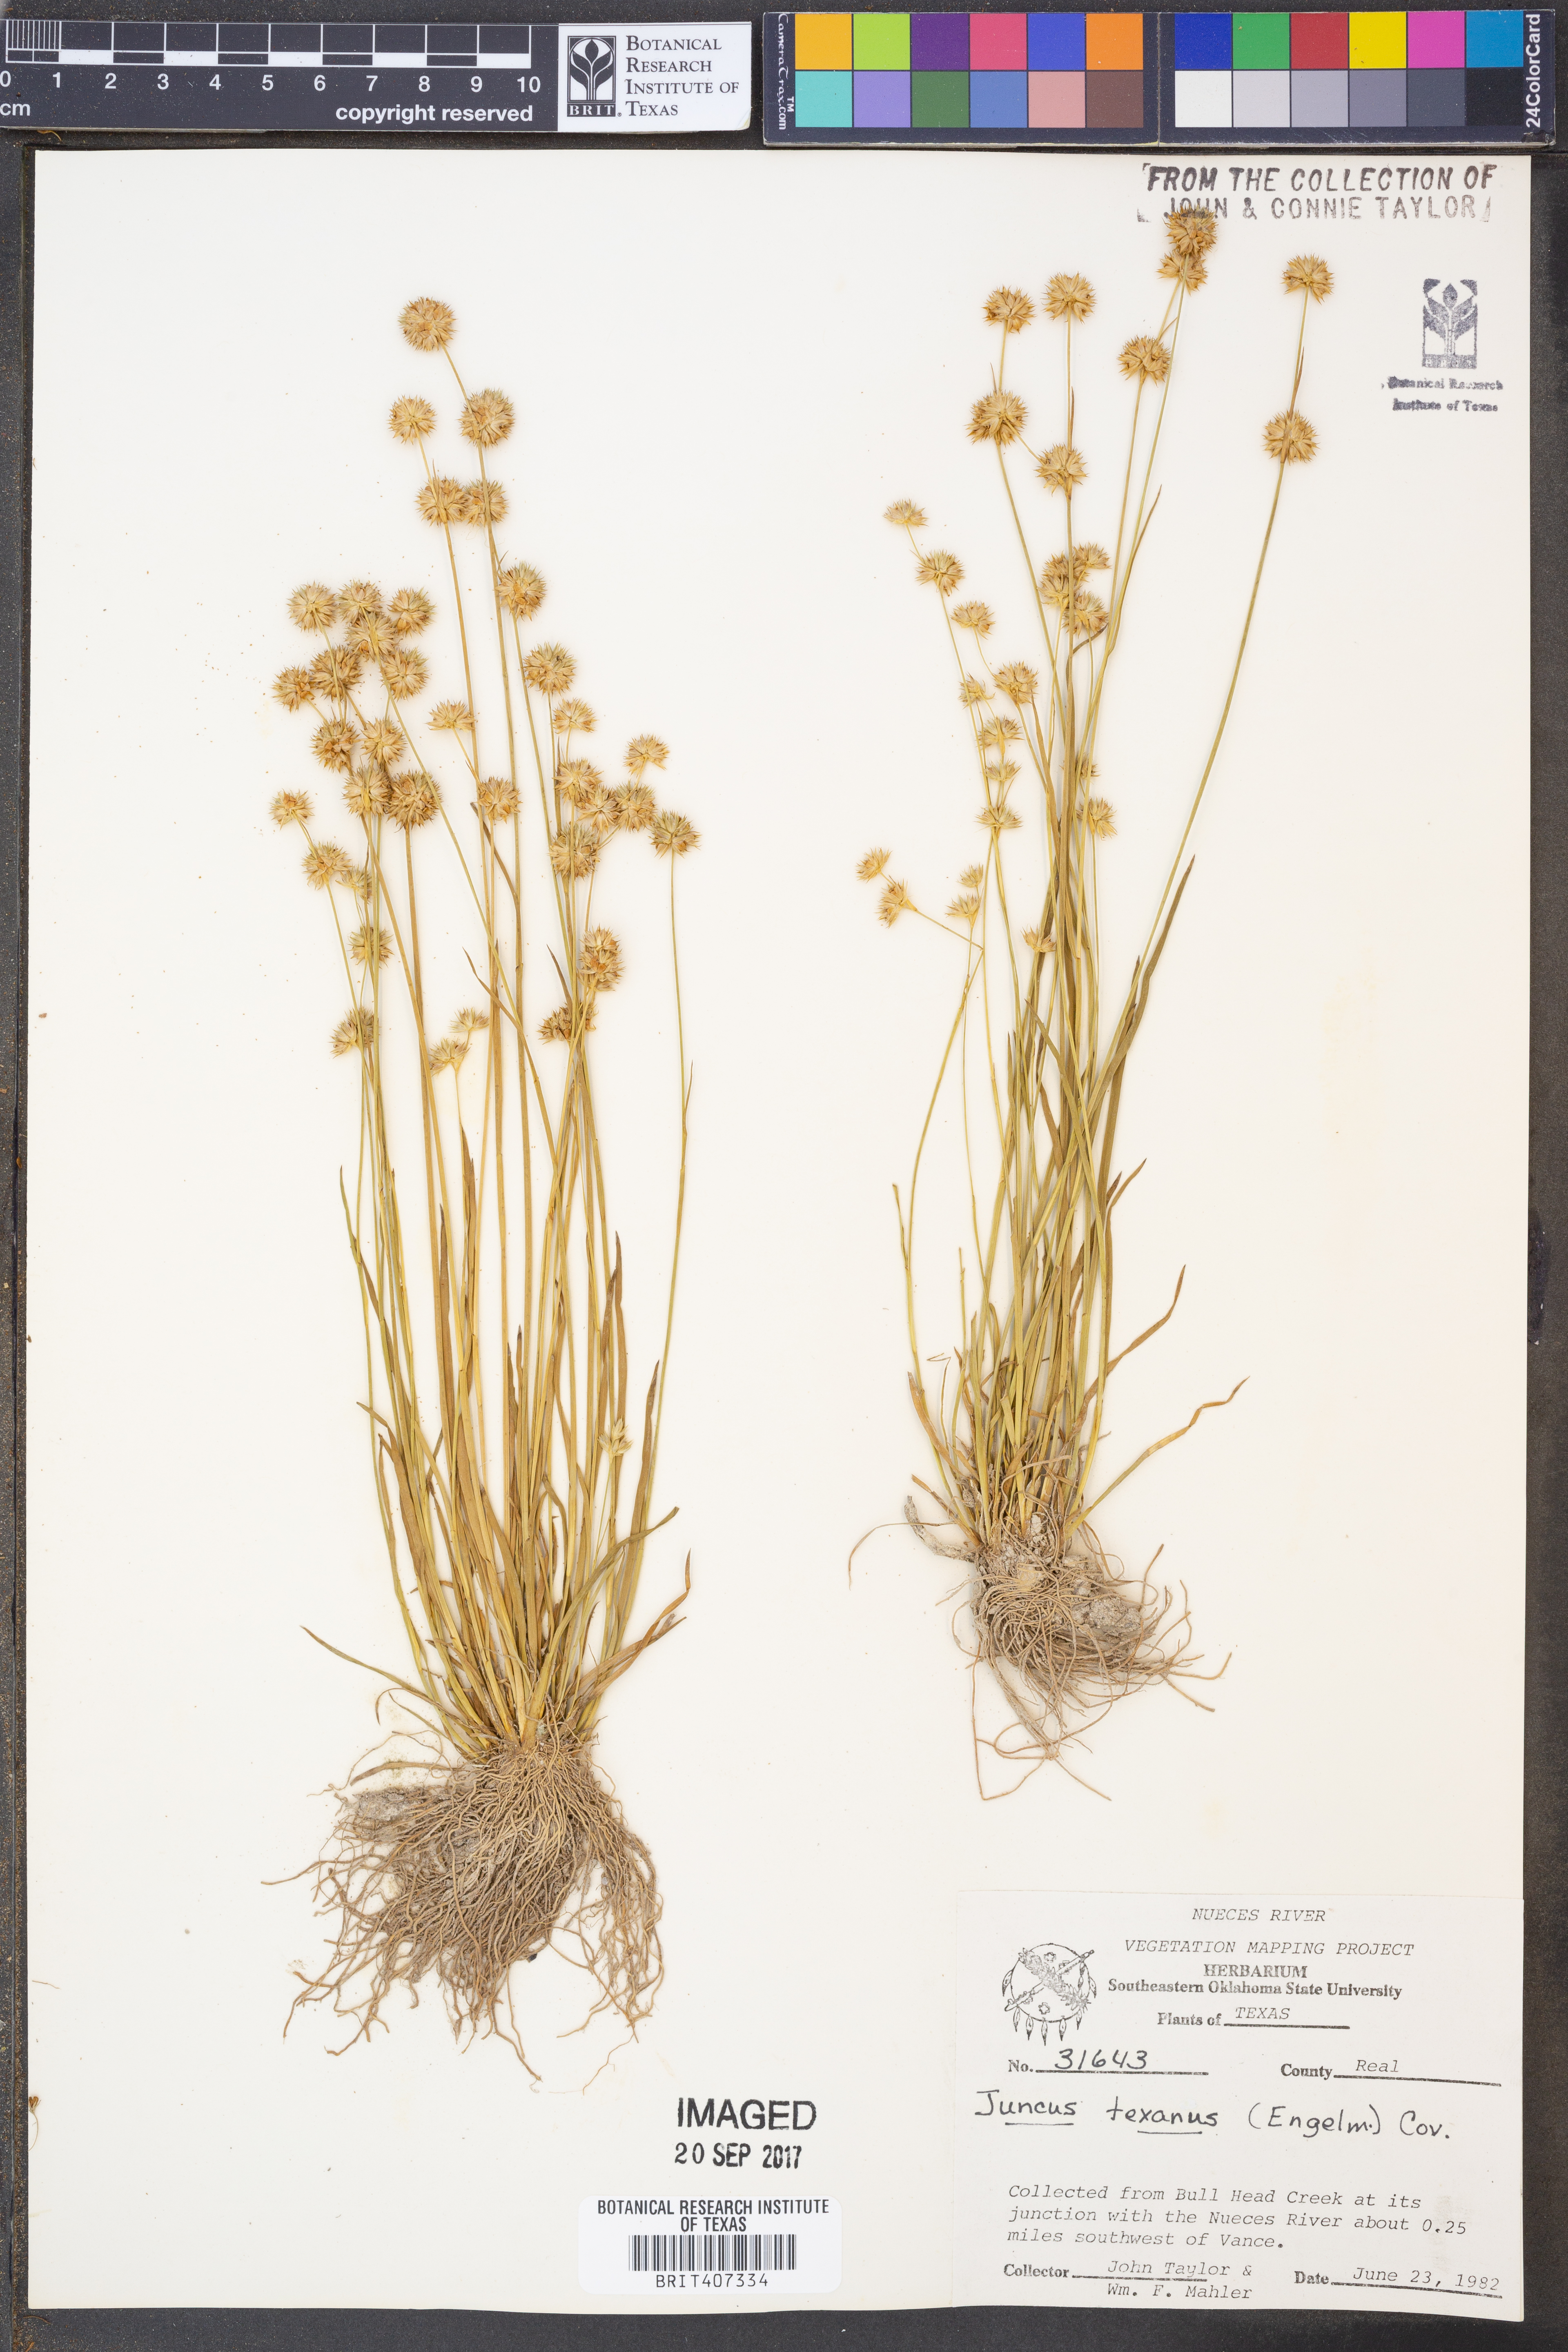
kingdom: Plantae
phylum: Tracheophyta
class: Liliopsida
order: Poales
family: Juncaceae
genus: Juncus
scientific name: Juncus texanus
